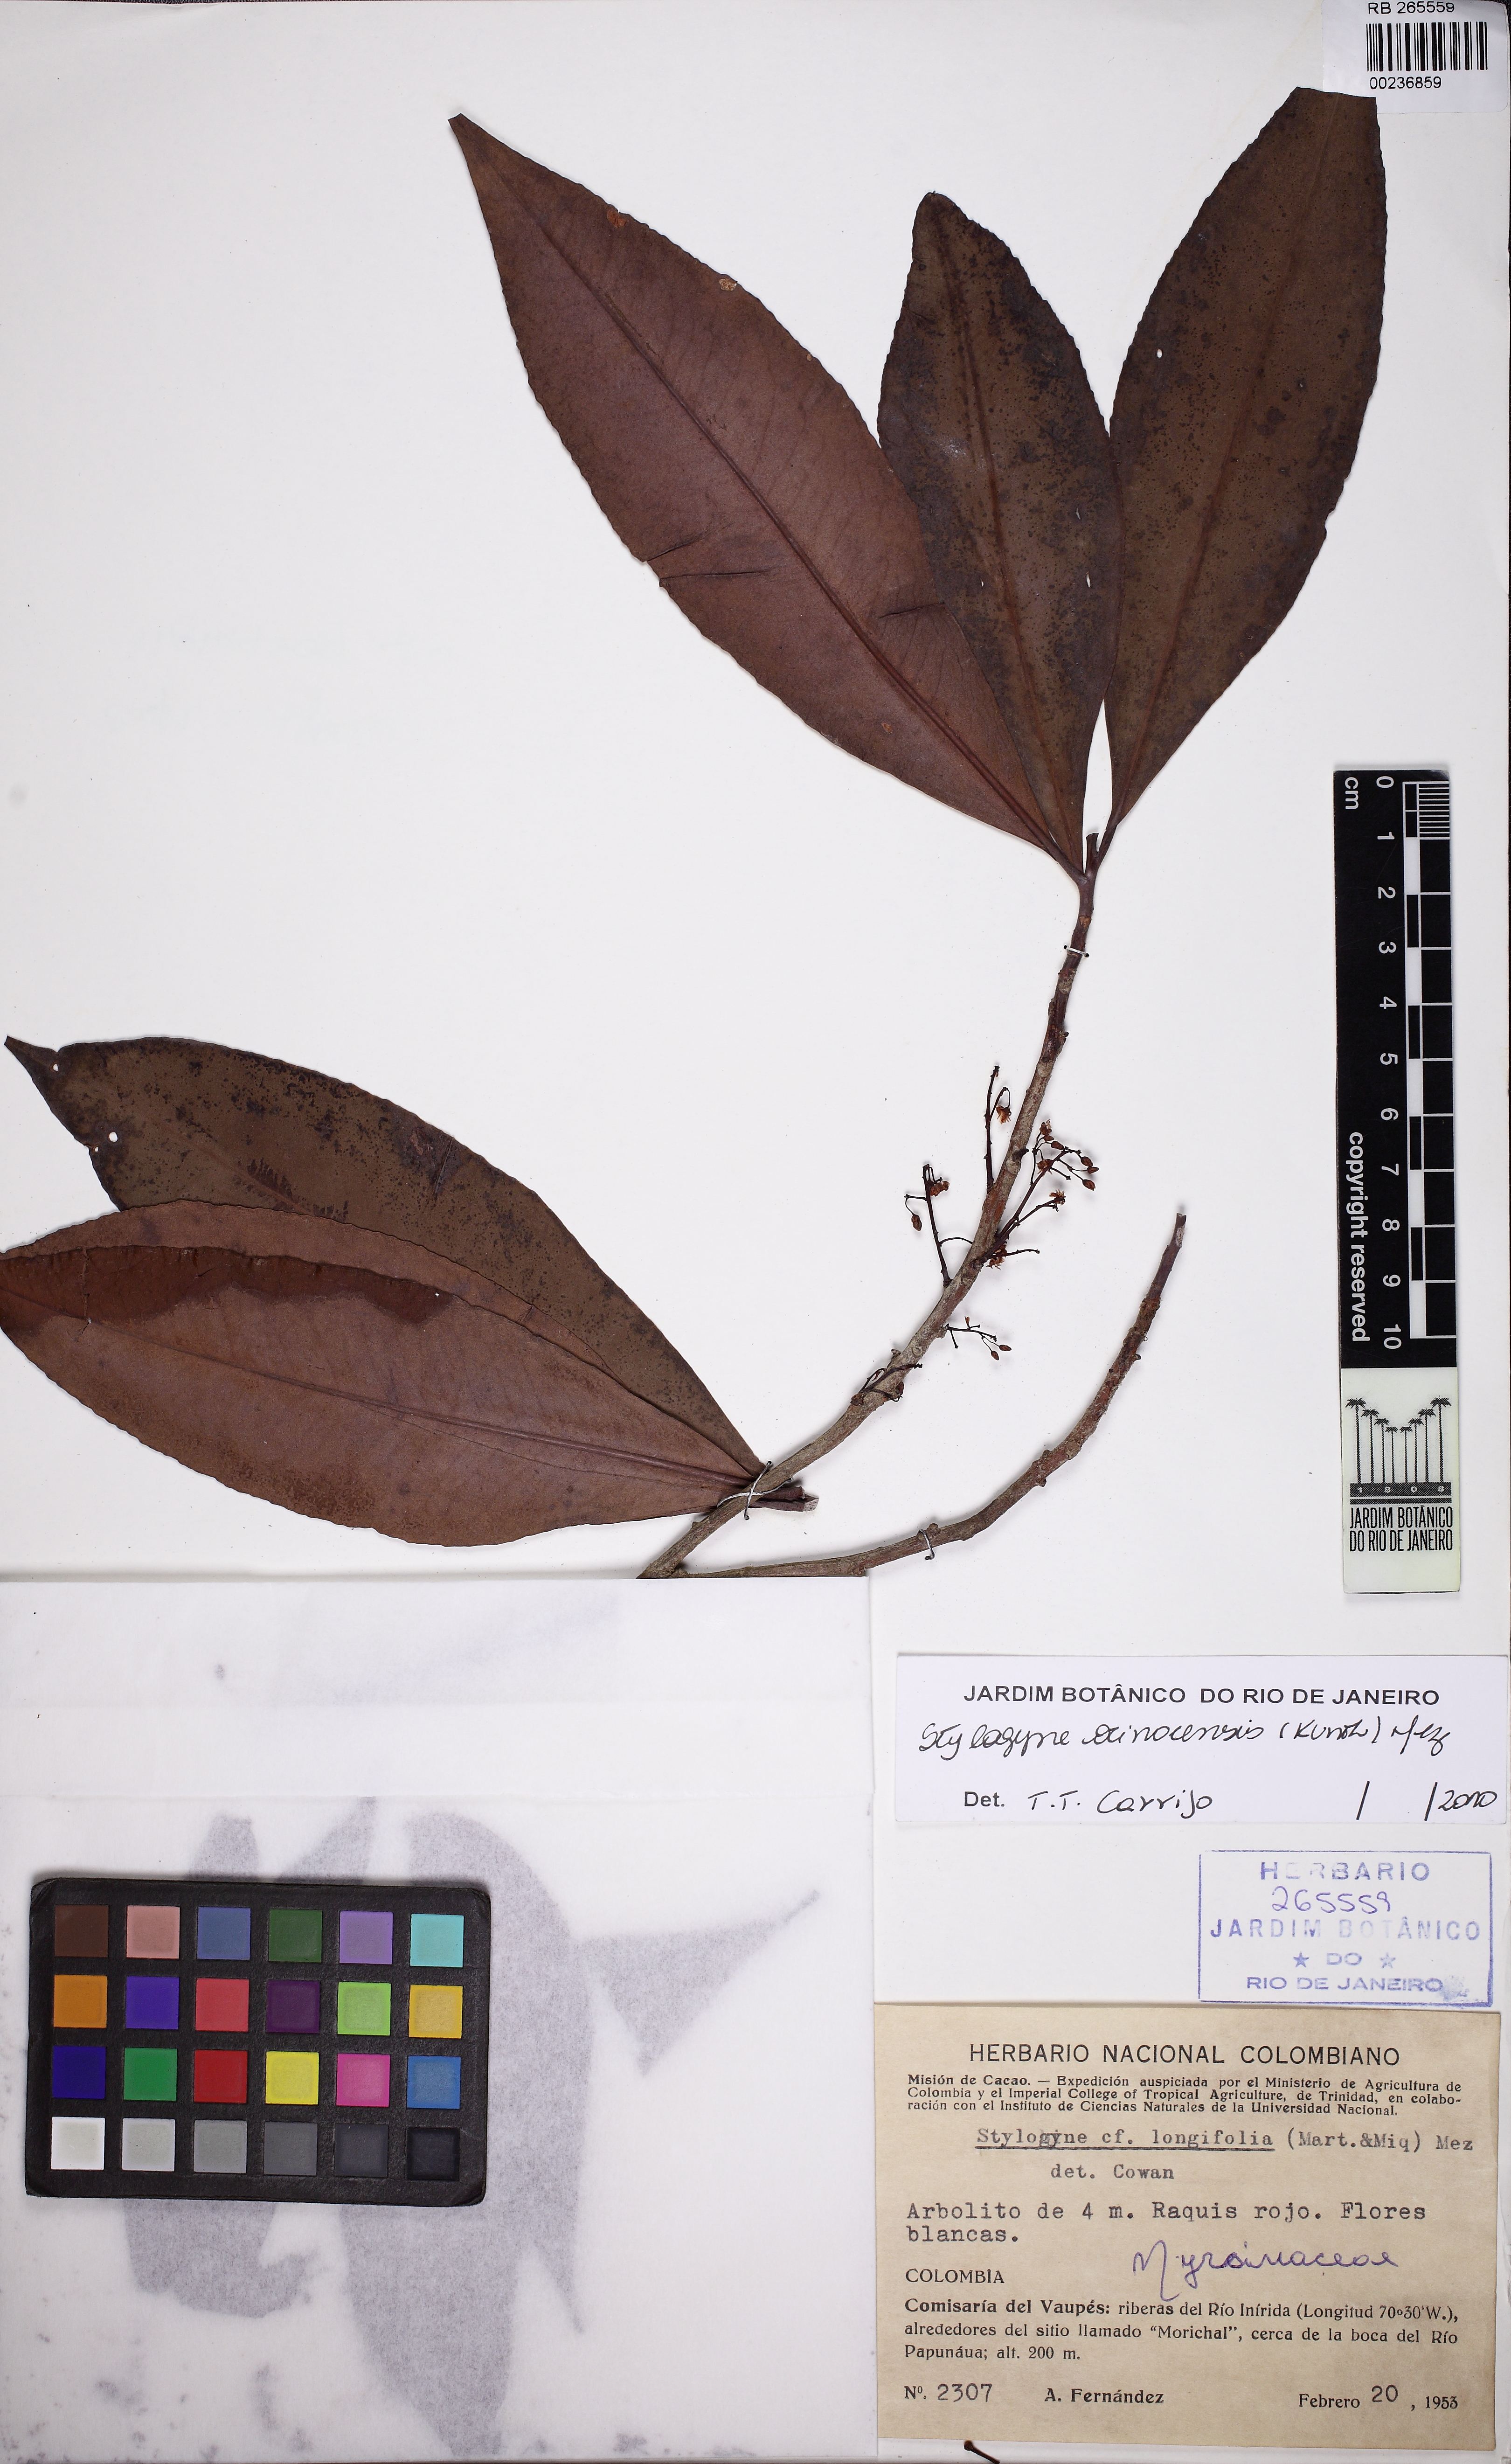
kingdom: Plantae
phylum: Tracheophyta
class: Magnoliopsida
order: Ericales
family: Primulaceae
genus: Stylogyne
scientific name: Stylogyne orinocensis
